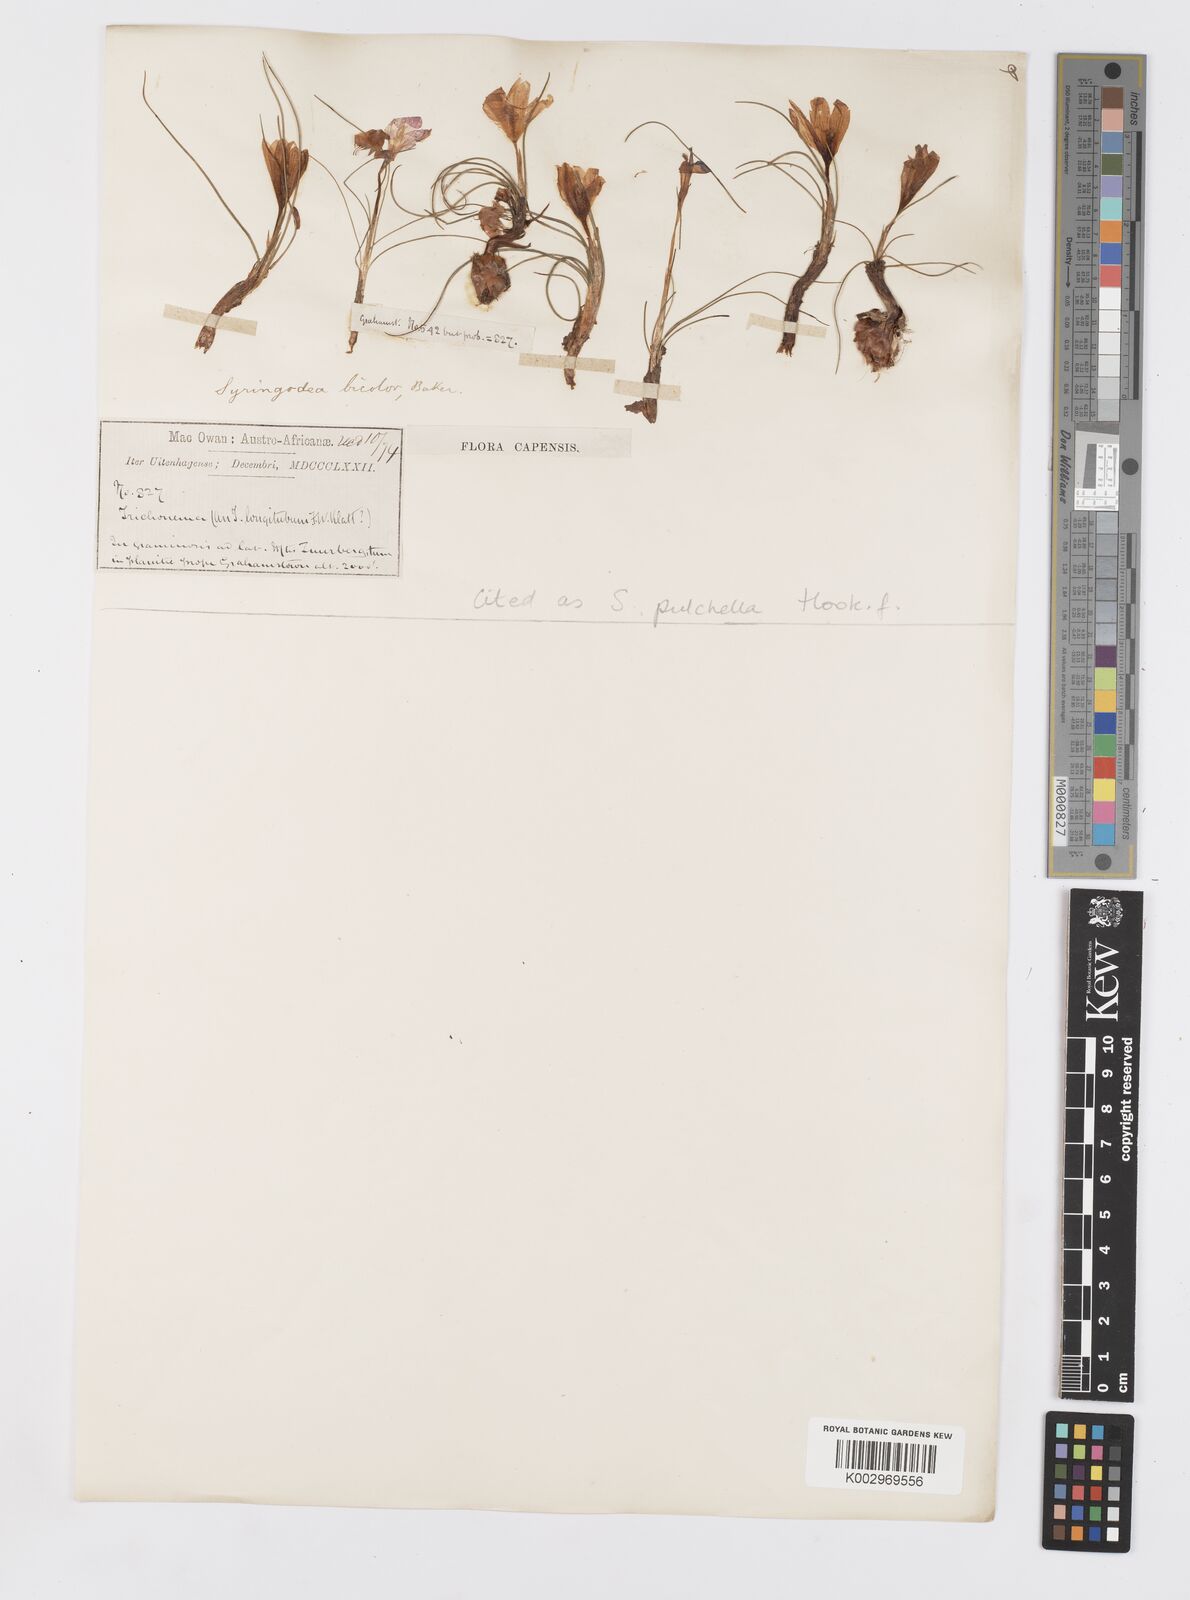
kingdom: Plantae
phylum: Tracheophyta
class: Liliopsida
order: Asparagales
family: Iridaceae
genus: Syringodea
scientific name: Syringodea pulchella
